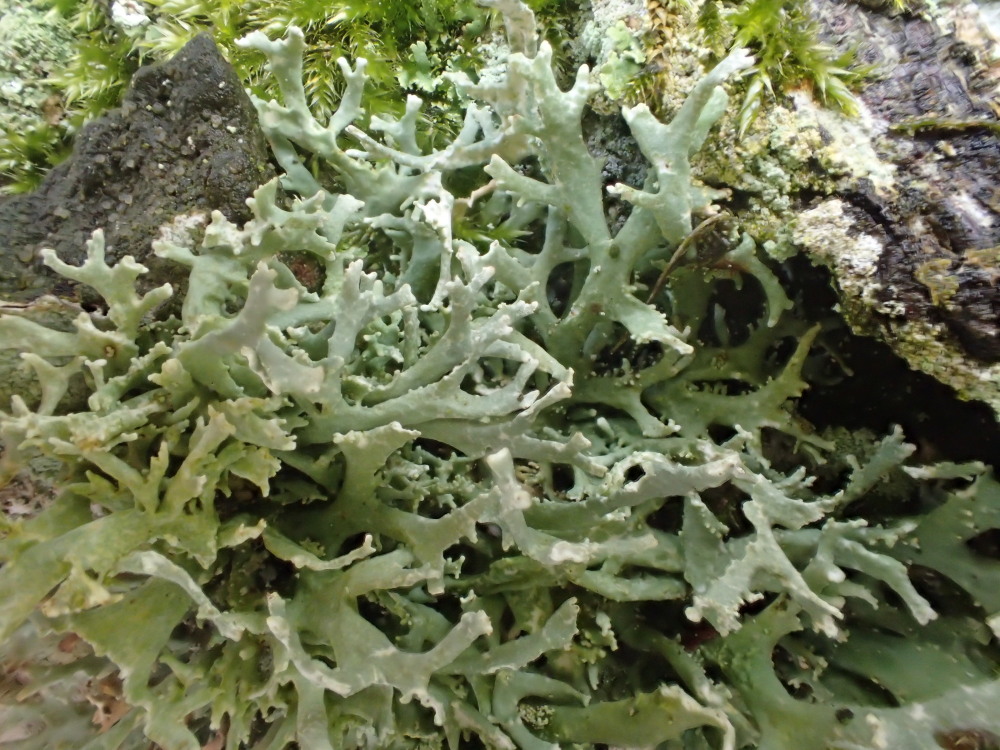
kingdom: Fungi
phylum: Ascomycota
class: Lecanoromycetes
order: Lecanorales
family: Parmeliaceae
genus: Evernia
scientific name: Evernia prunastri
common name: almindelig slåenlav
